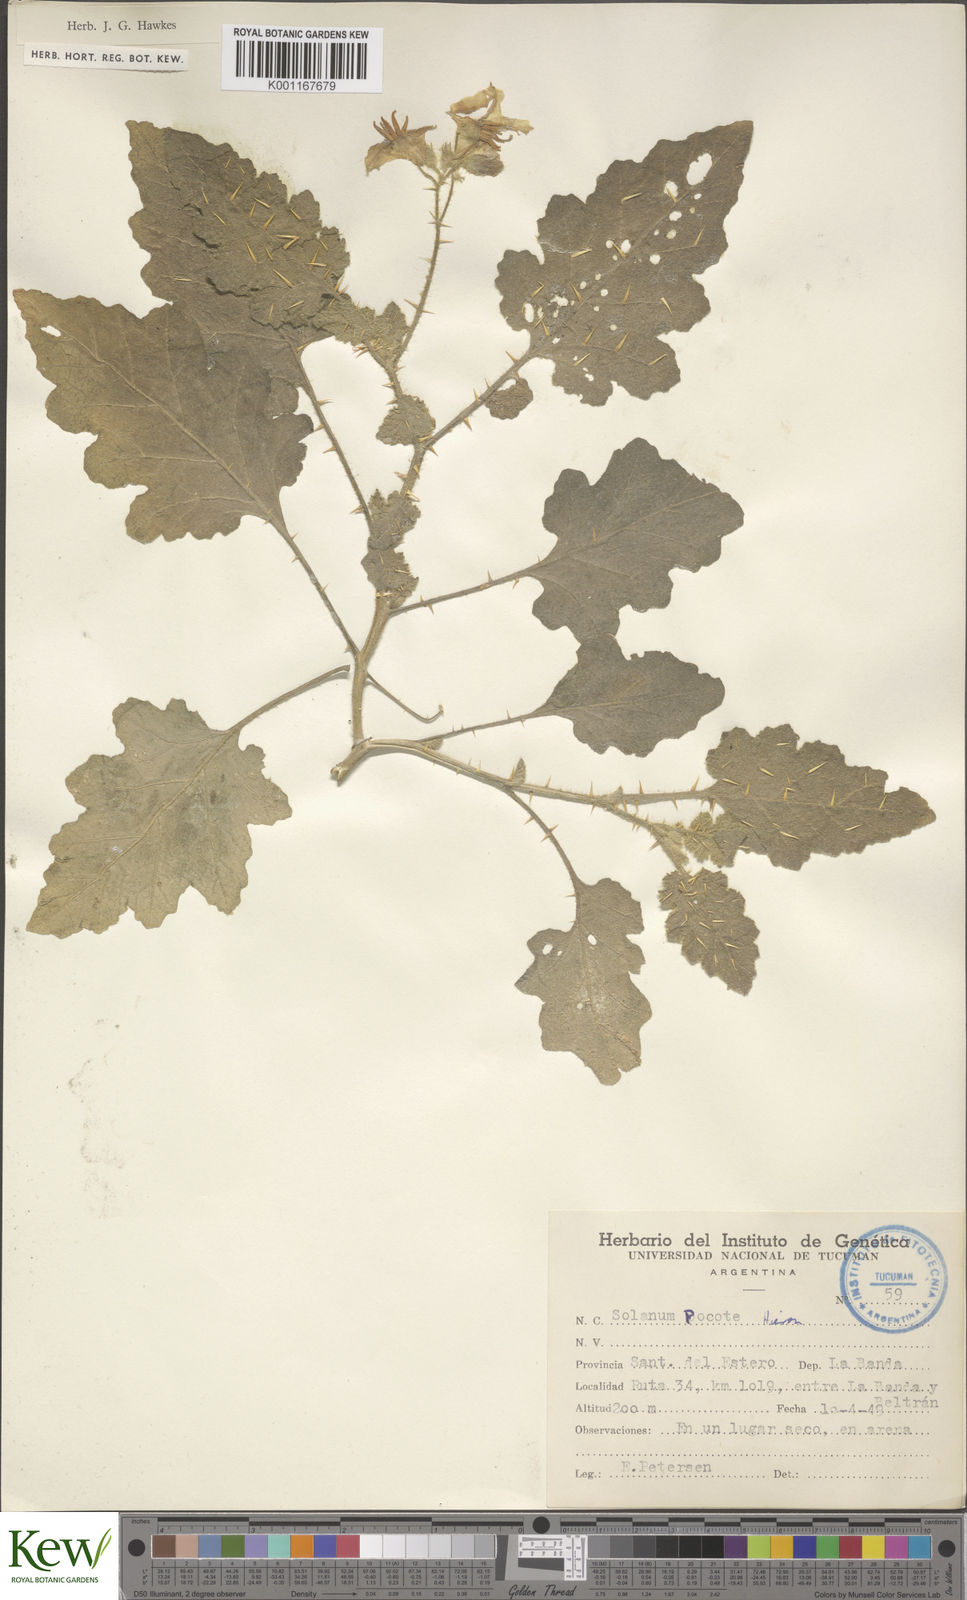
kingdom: Plantae
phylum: Tracheophyta
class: Magnoliopsida
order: Solanales
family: Solanaceae
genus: Solanum
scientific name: Solanum hieronymi
